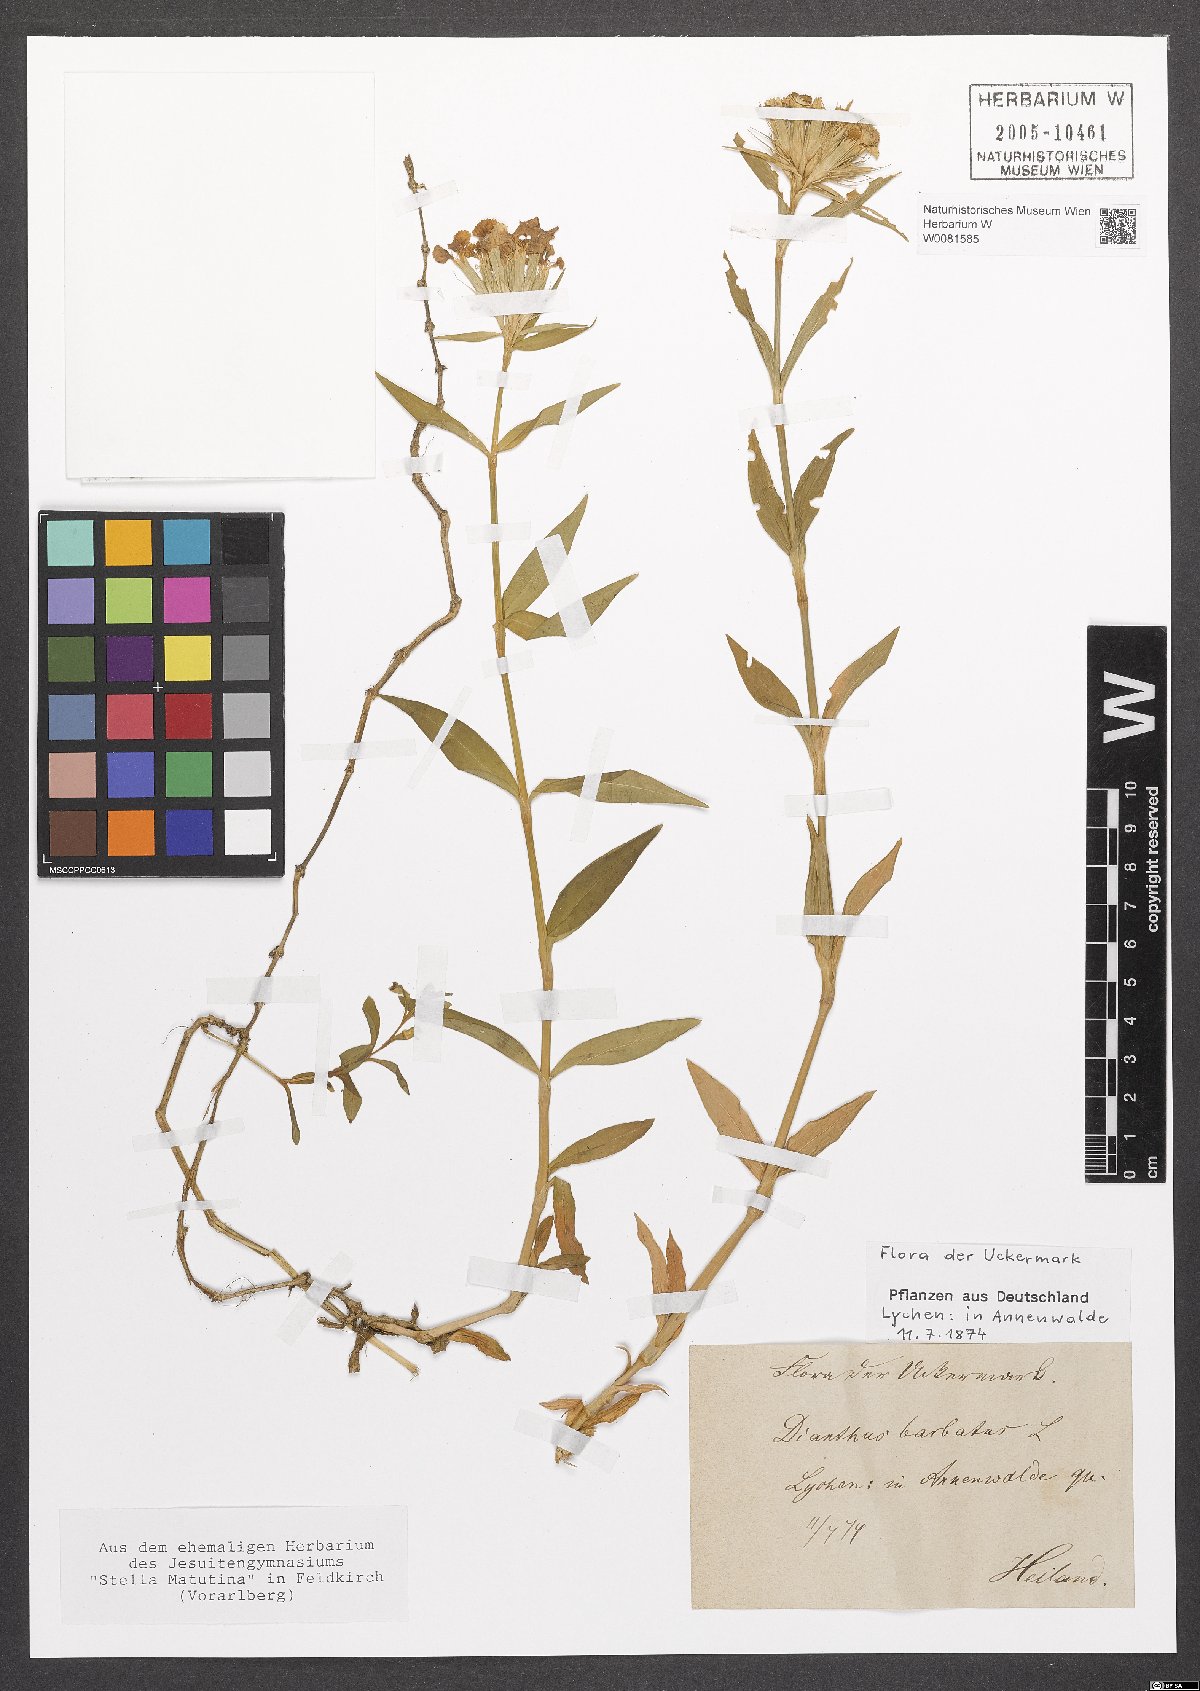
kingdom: Plantae
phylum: Tracheophyta
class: Magnoliopsida
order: Caryophyllales
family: Caryophyllaceae
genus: Dianthus
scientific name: Dianthus barbatus
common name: Sweet-william
